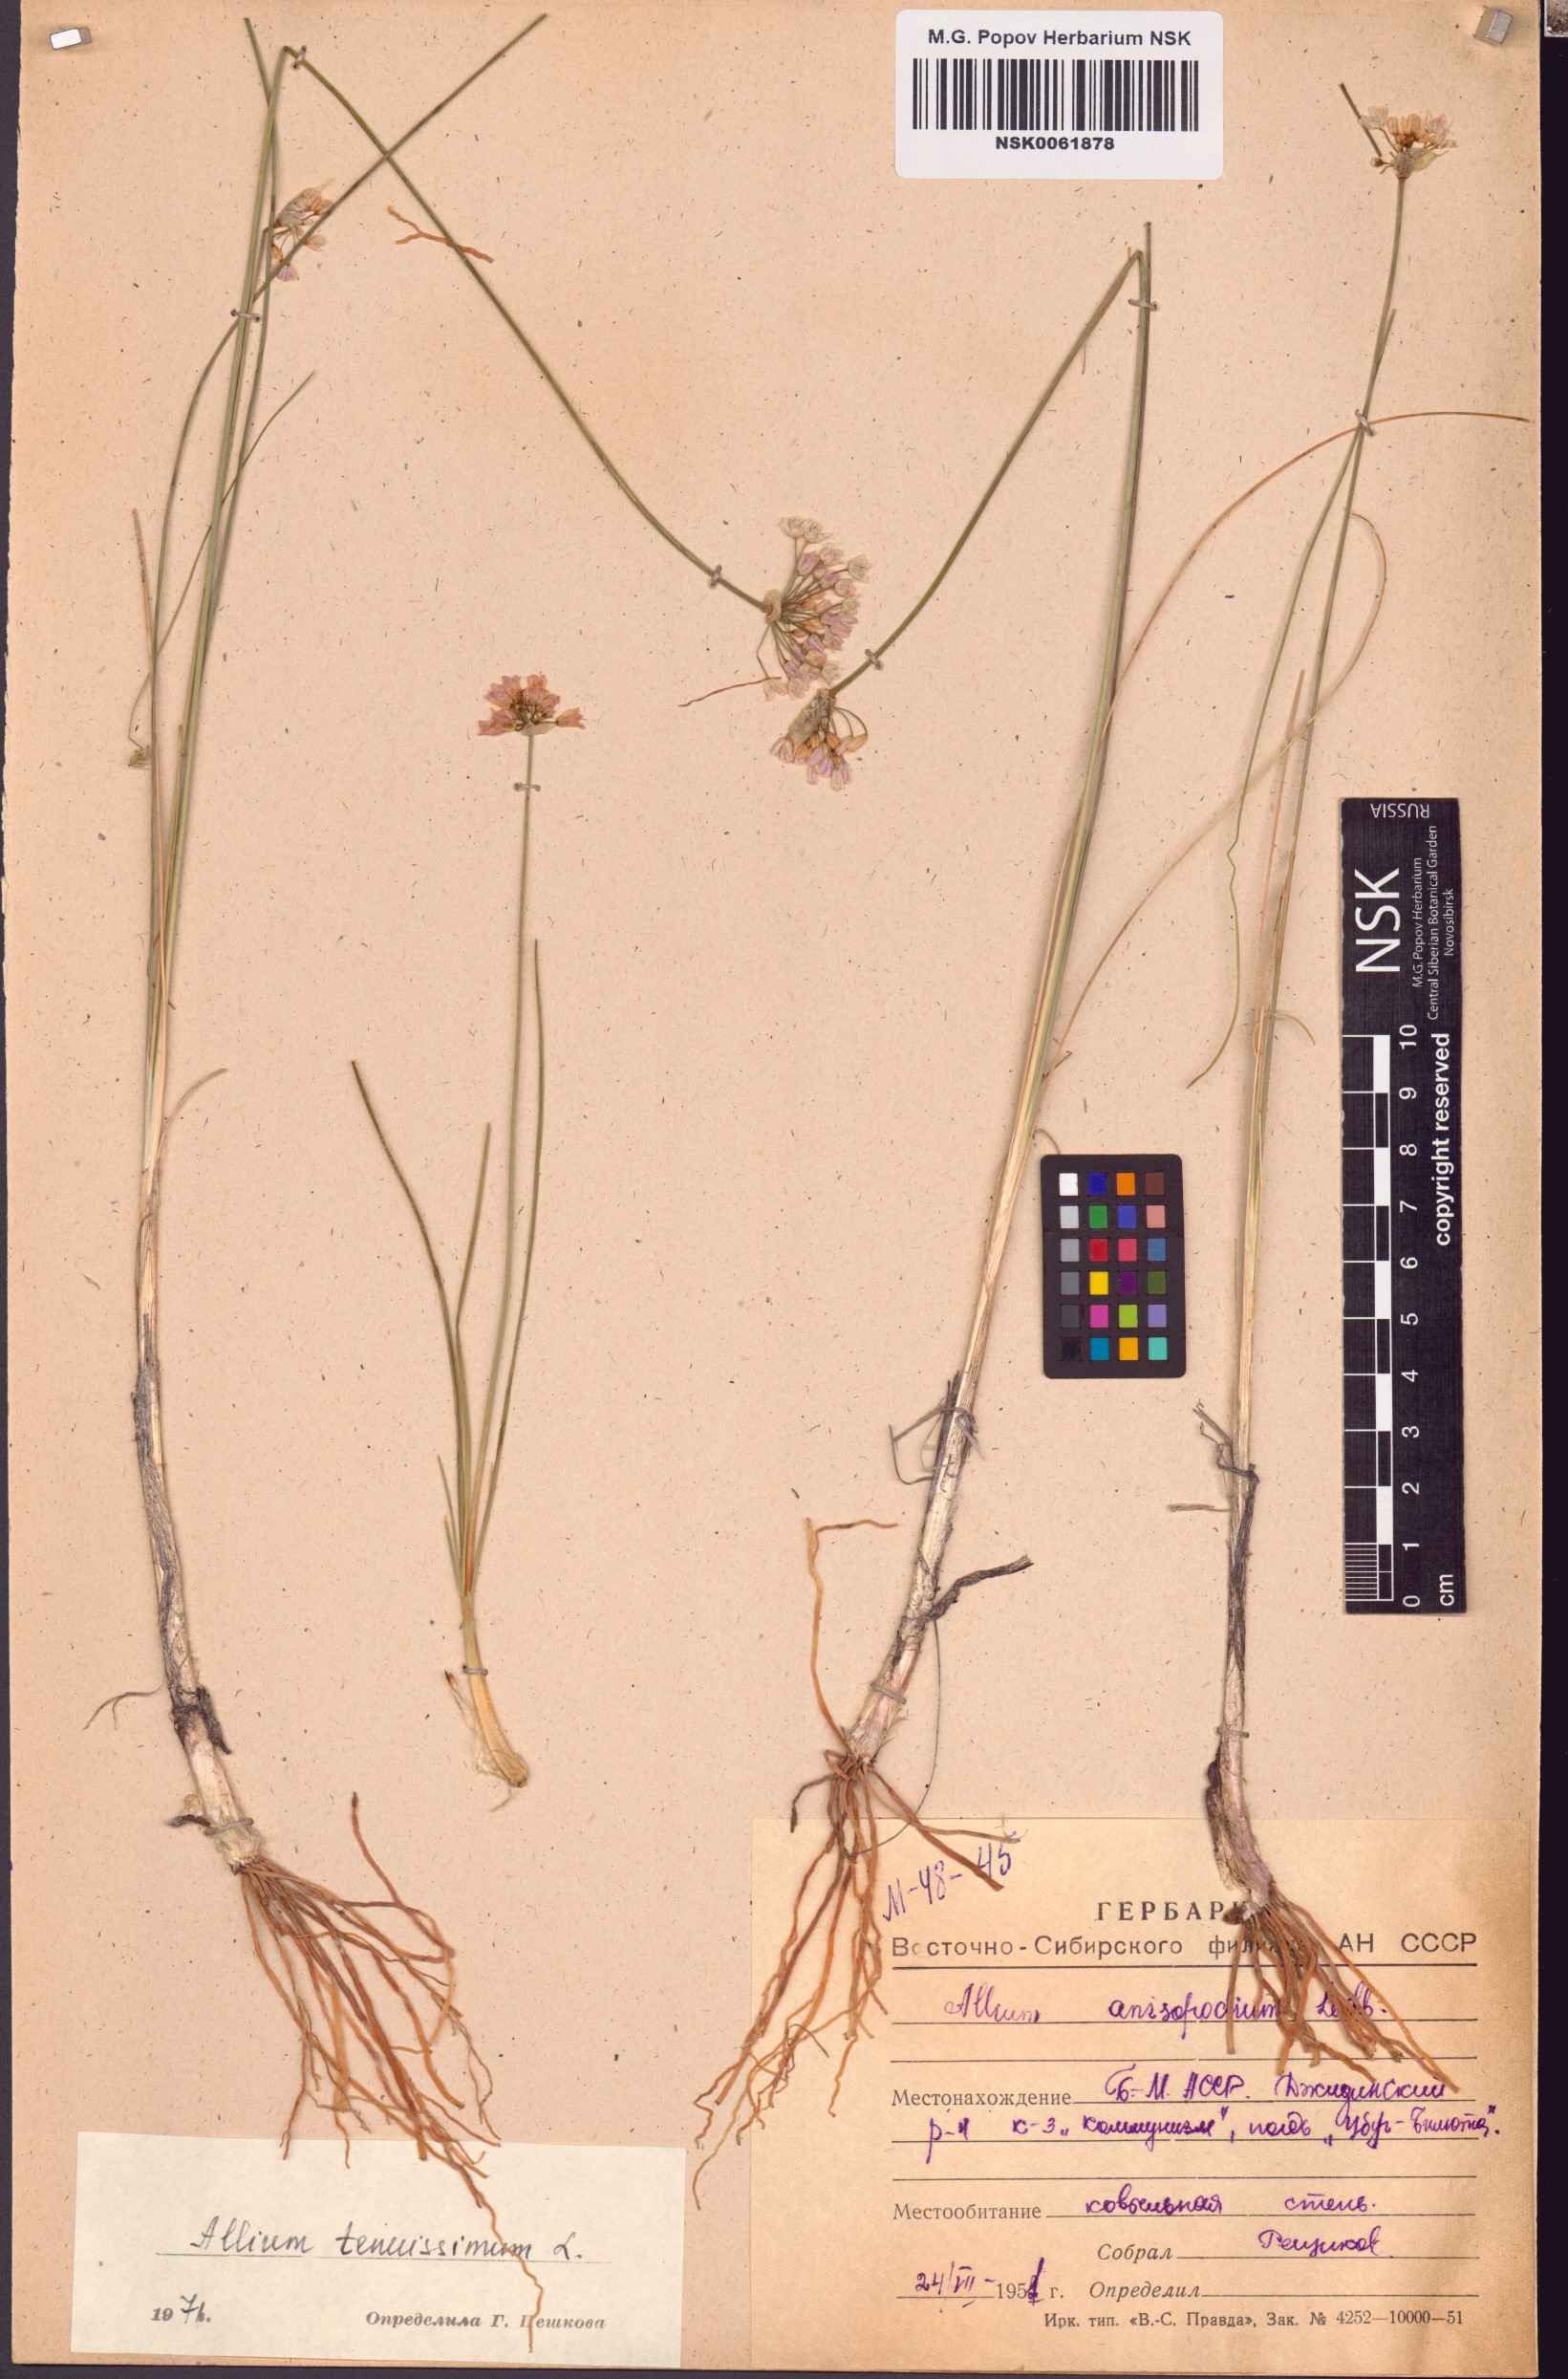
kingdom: Plantae
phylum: Tracheophyta
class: Liliopsida
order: Asparagales
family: Amaryllidaceae
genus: Allium
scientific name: Allium tenuissimum
